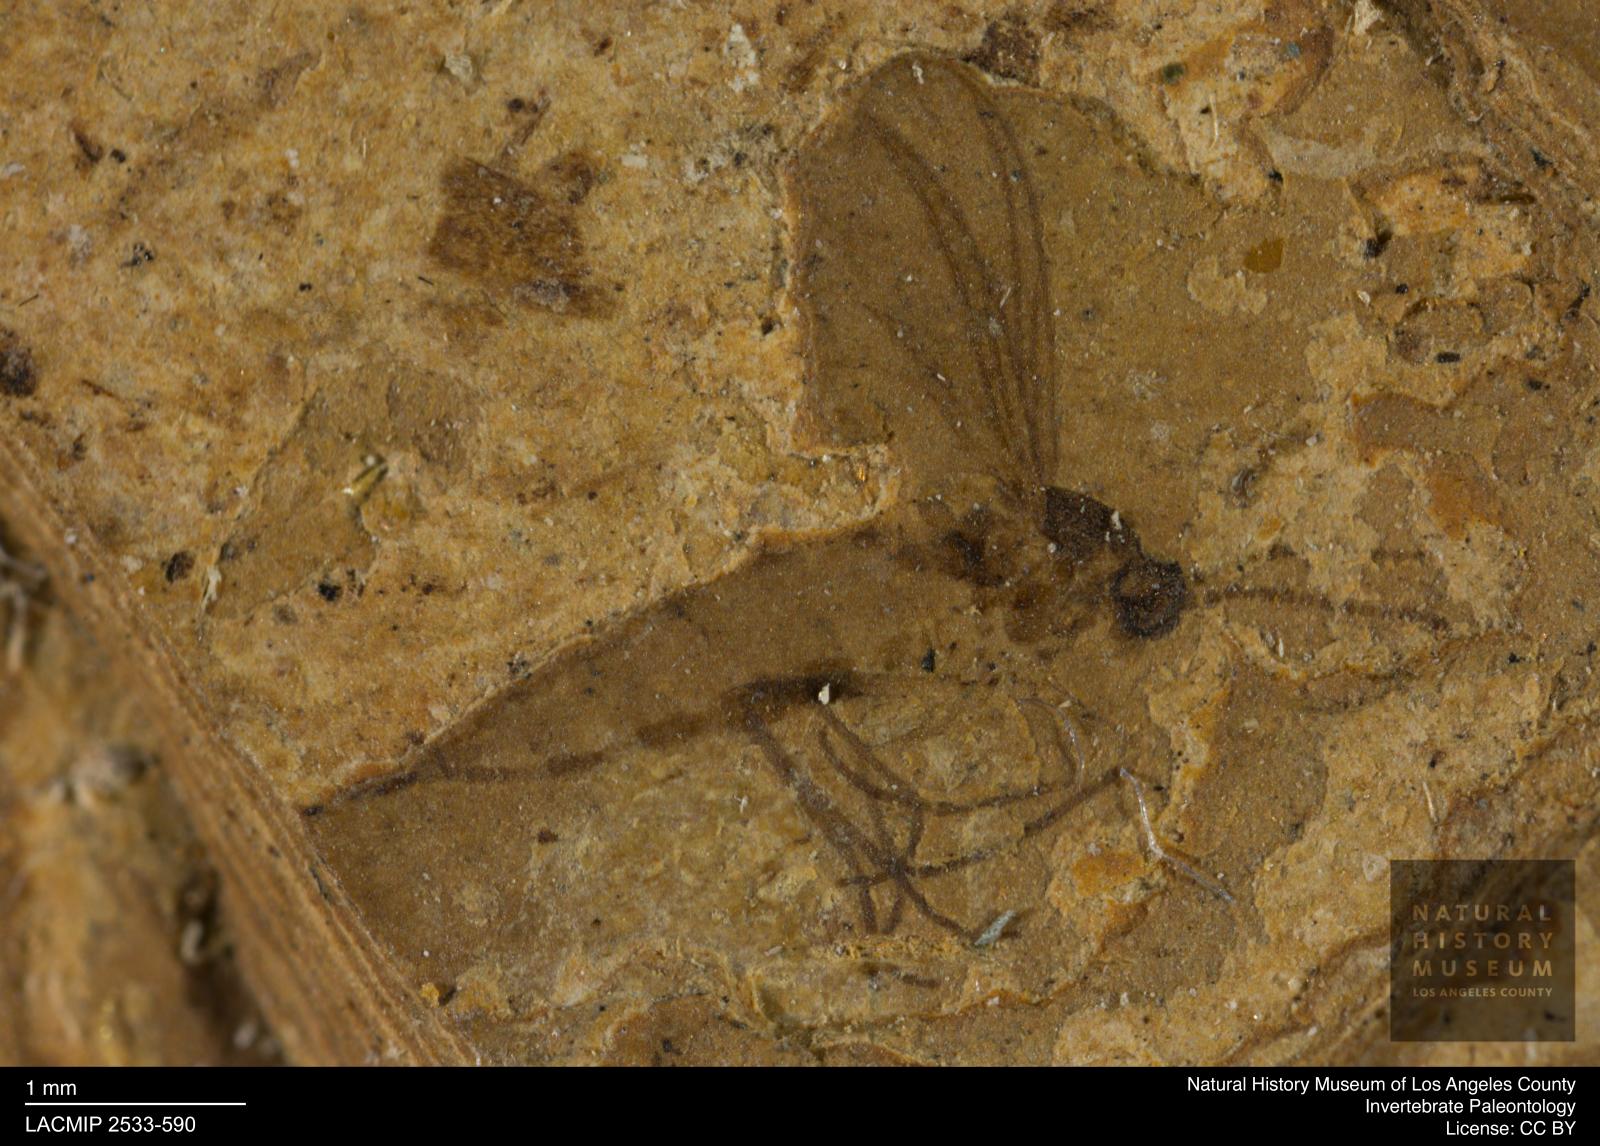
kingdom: Animalia
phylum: Arthropoda
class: Insecta
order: Diptera
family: Sciaridae
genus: Sciara
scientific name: Sciara longa
